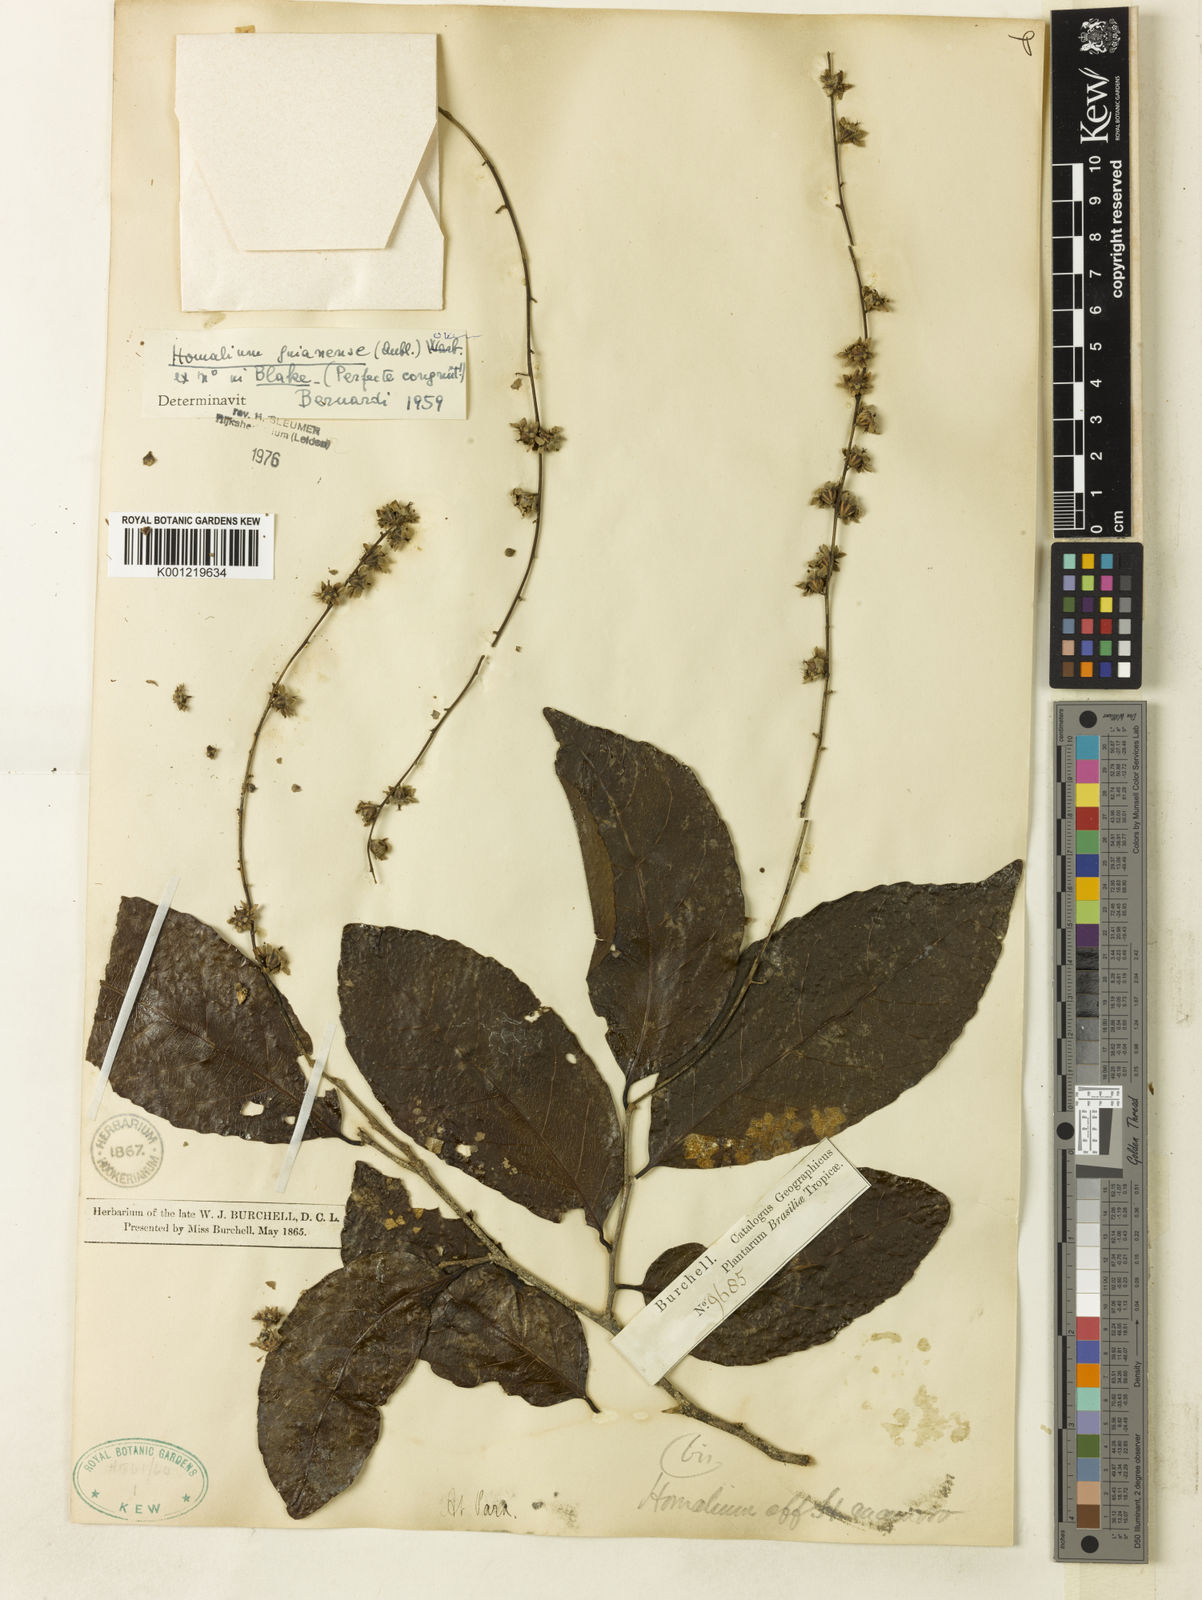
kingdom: Plantae
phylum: Tracheophyta
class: Magnoliopsida
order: Malpighiales
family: Salicaceae
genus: Homalium
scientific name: Homalium guianense
